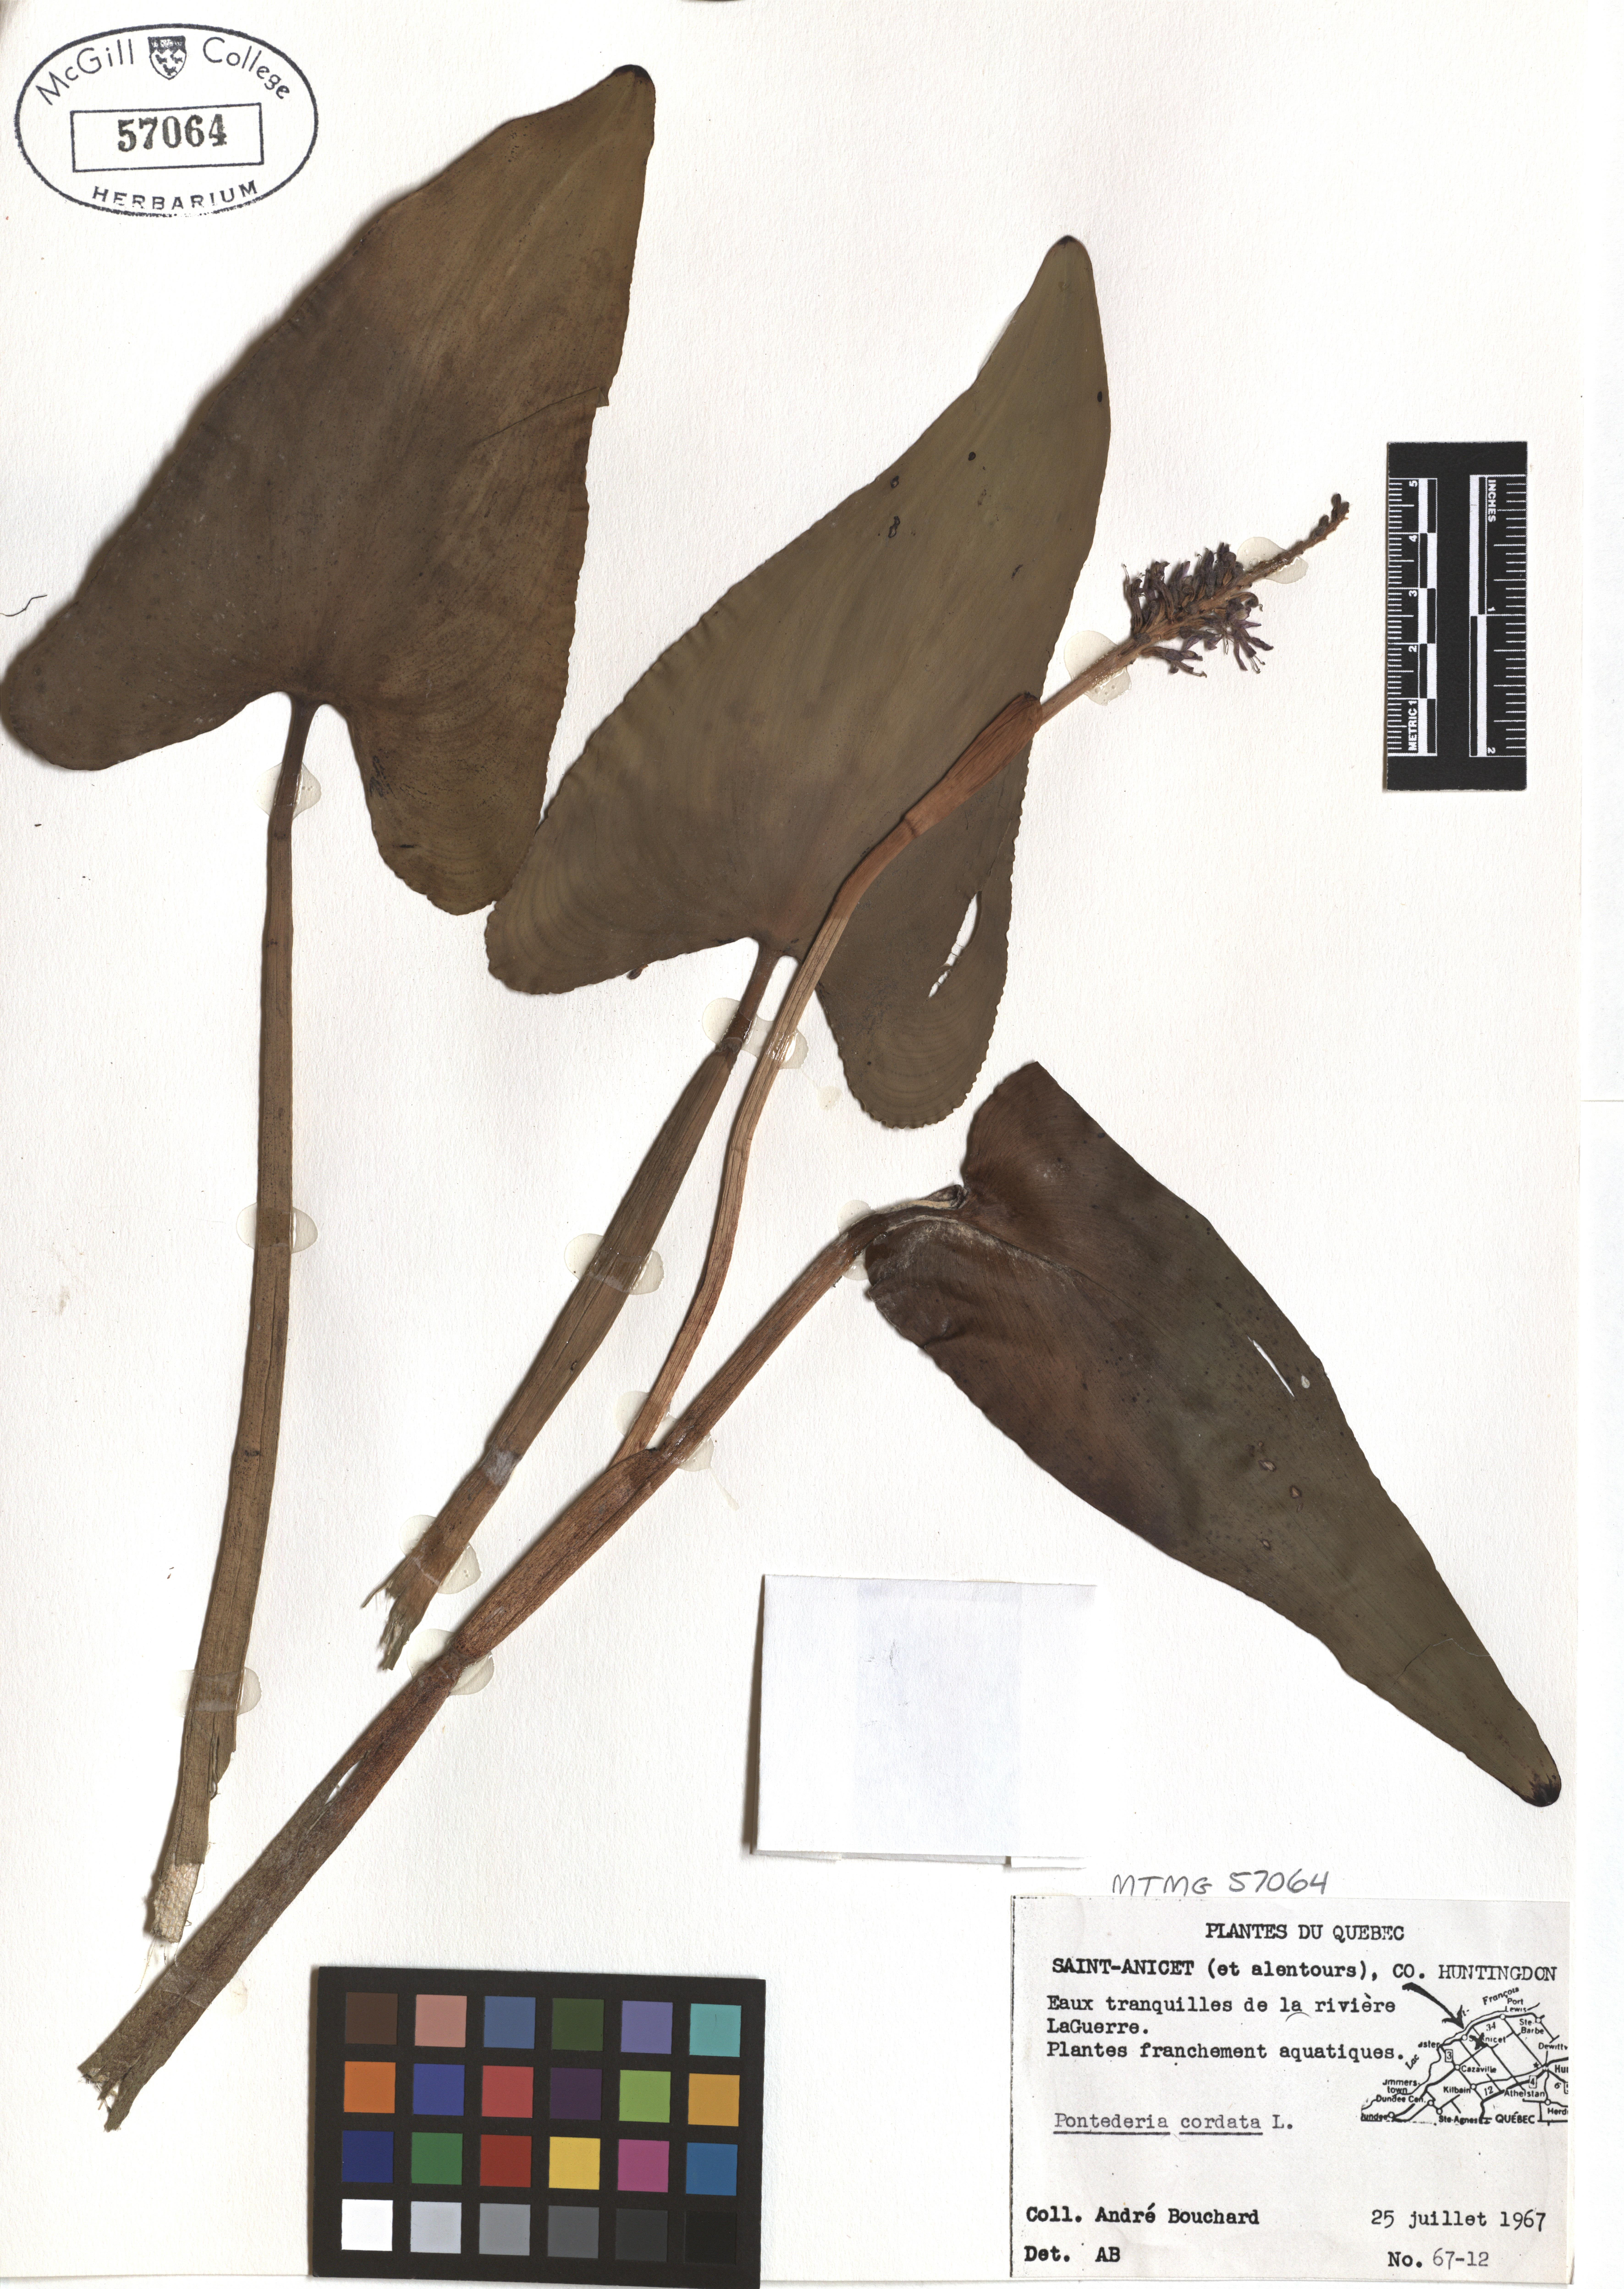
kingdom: Plantae
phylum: Tracheophyta
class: Liliopsida
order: Commelinales
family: Pontederiaceae
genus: Pontederia
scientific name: Pontederia cordata
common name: Pickerelweed
